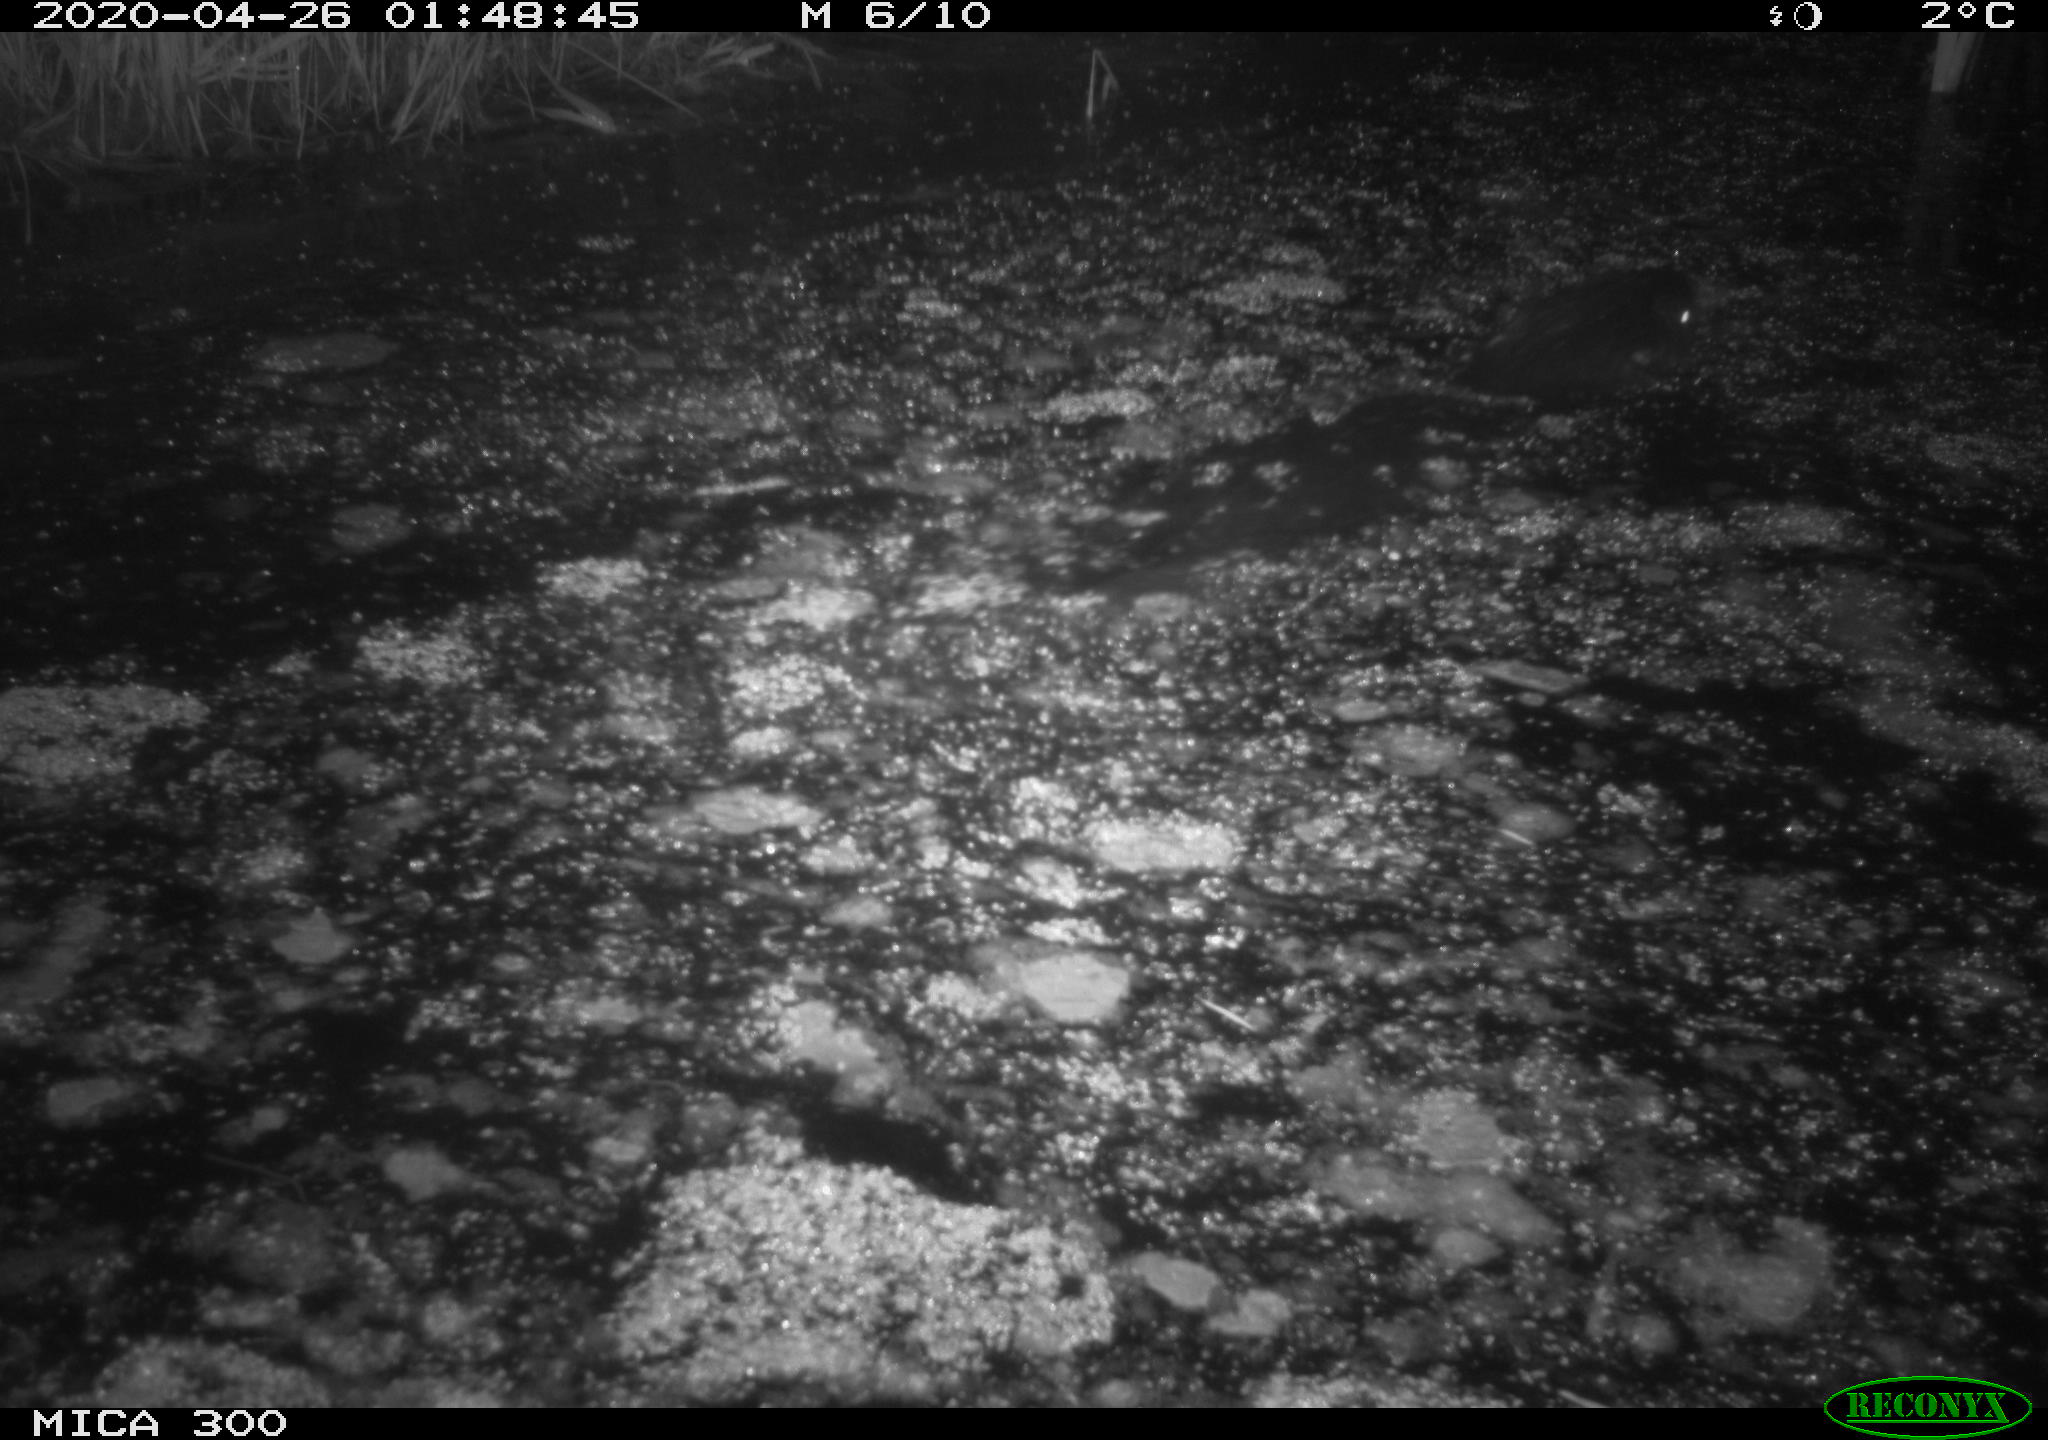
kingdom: Animalia
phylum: Chordata
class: Mammalia
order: Rodentia
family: Castoridae
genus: Castor
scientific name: Castor fiber
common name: Eurasian beaver
